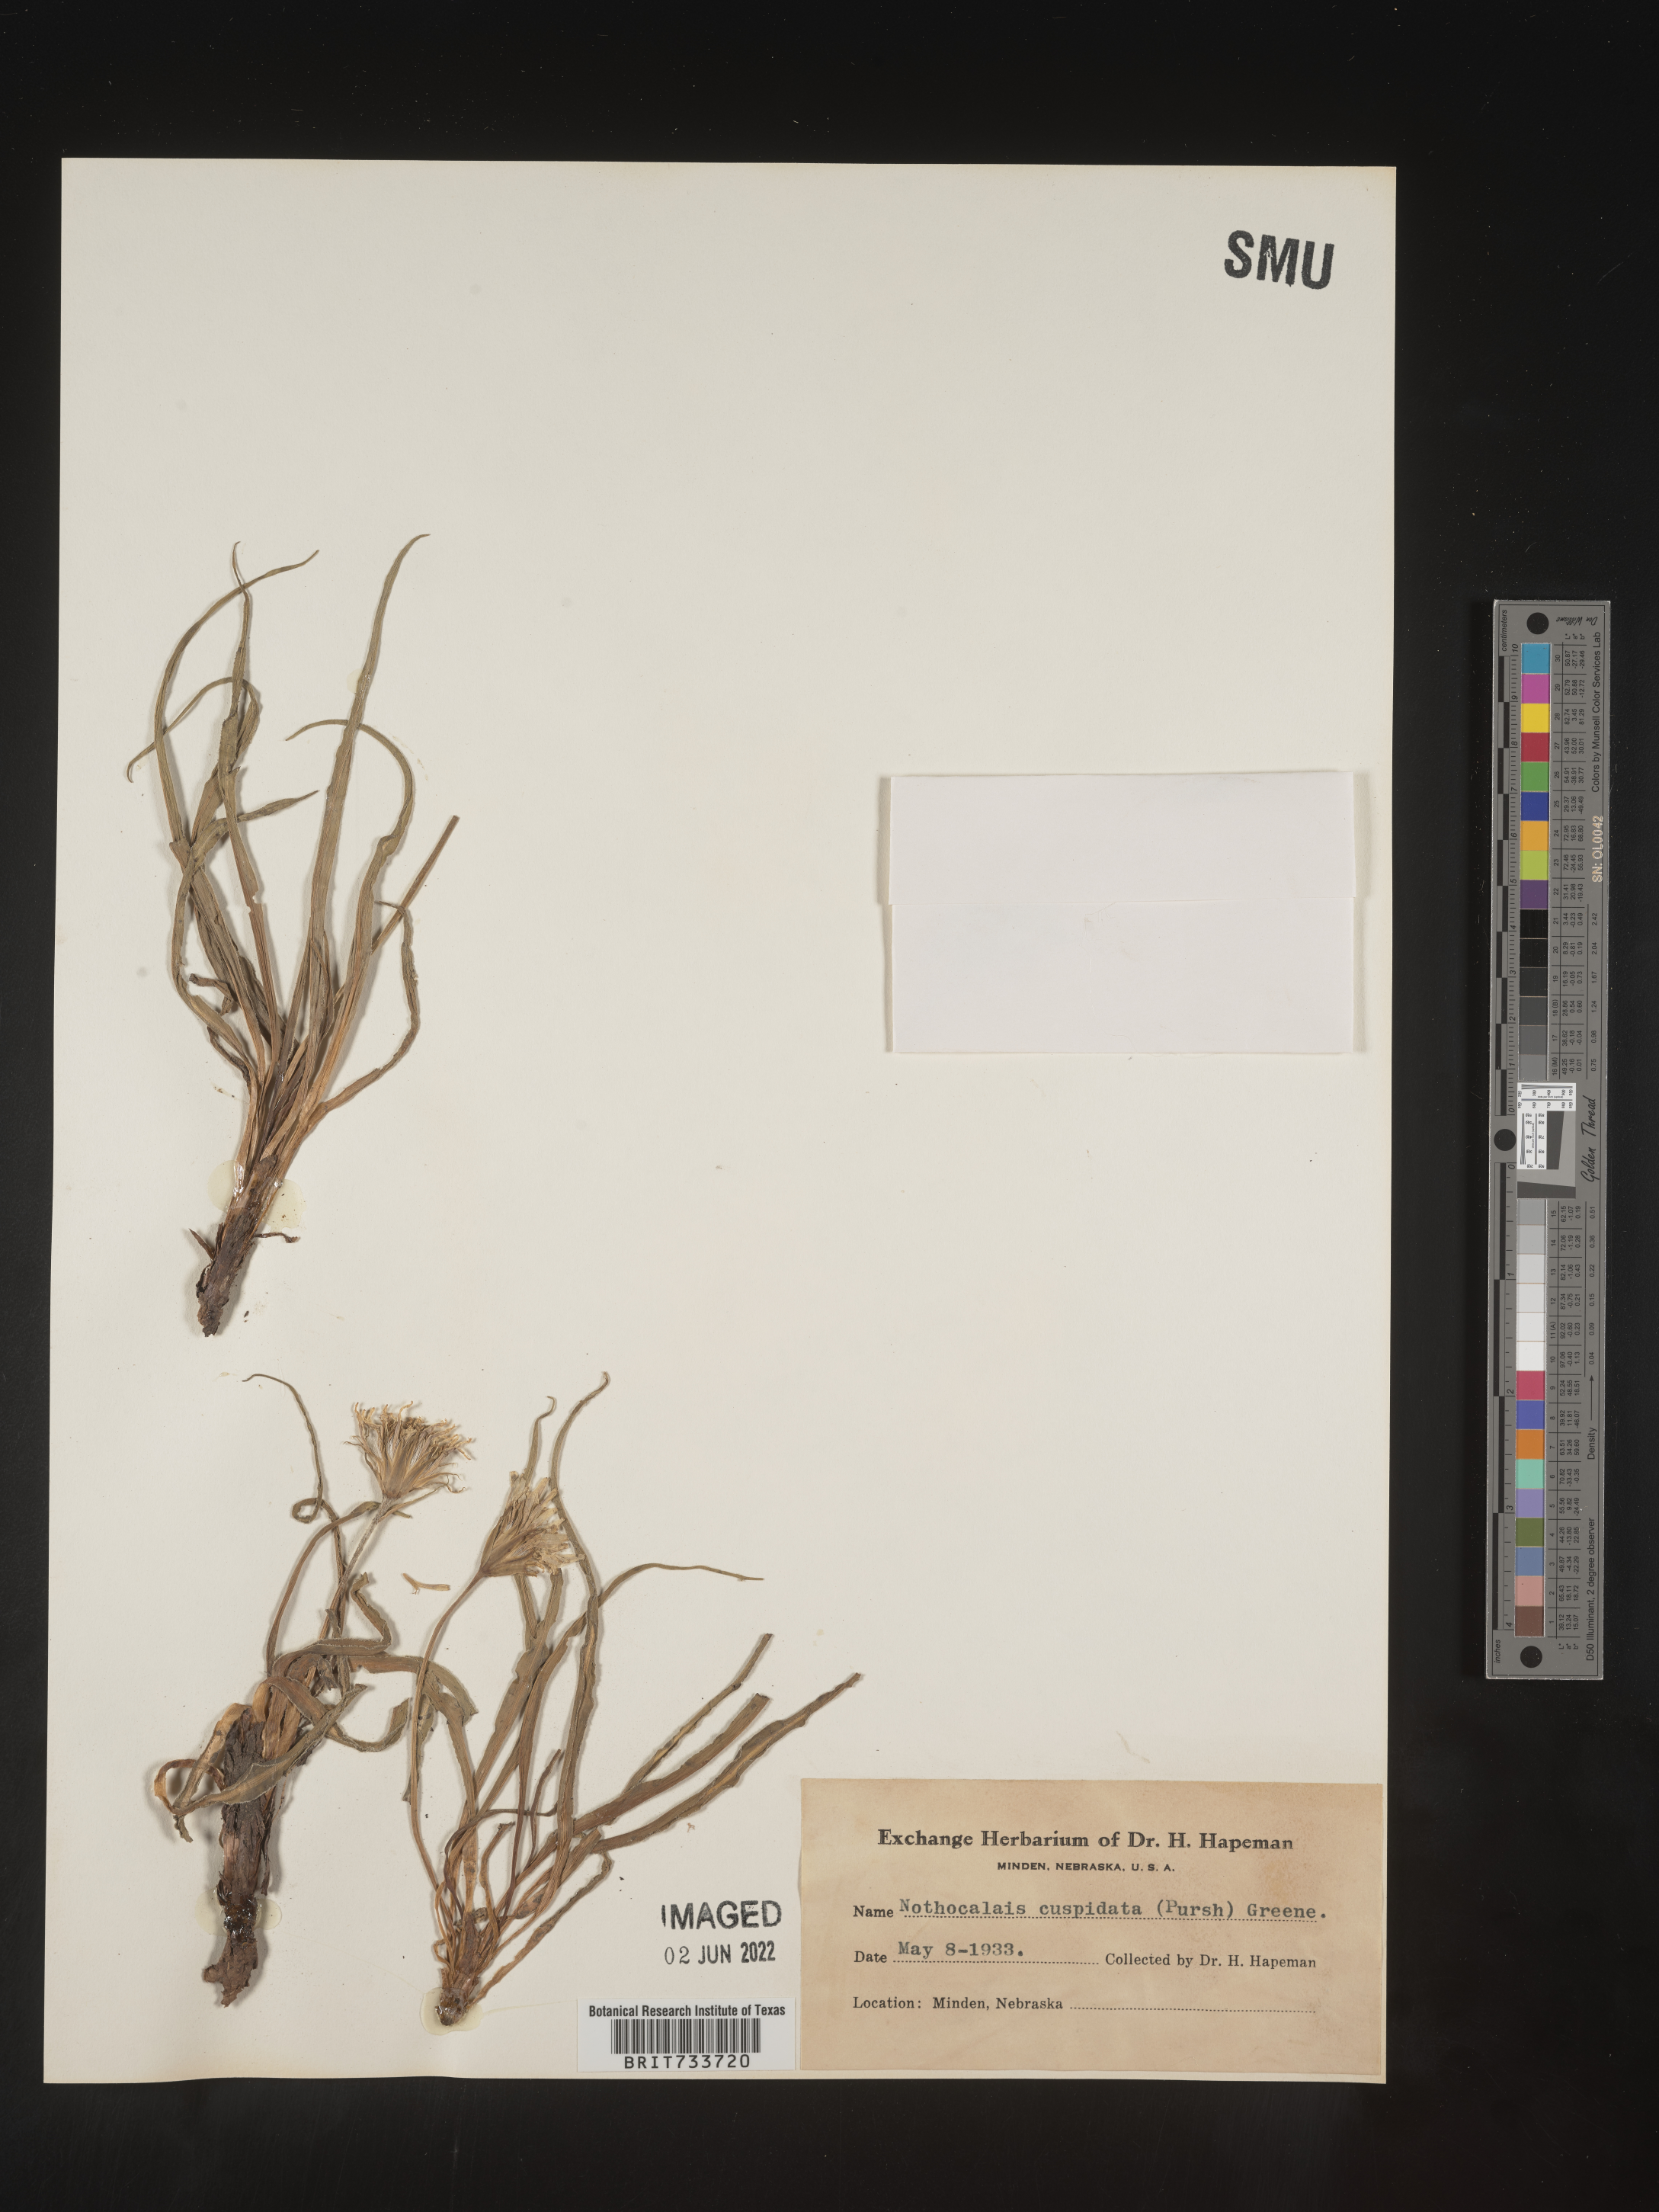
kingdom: Plantae
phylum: Tracheophyta
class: Magnoliopsida
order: Asterales
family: Asteraceae
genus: Microseris
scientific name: Microseris
